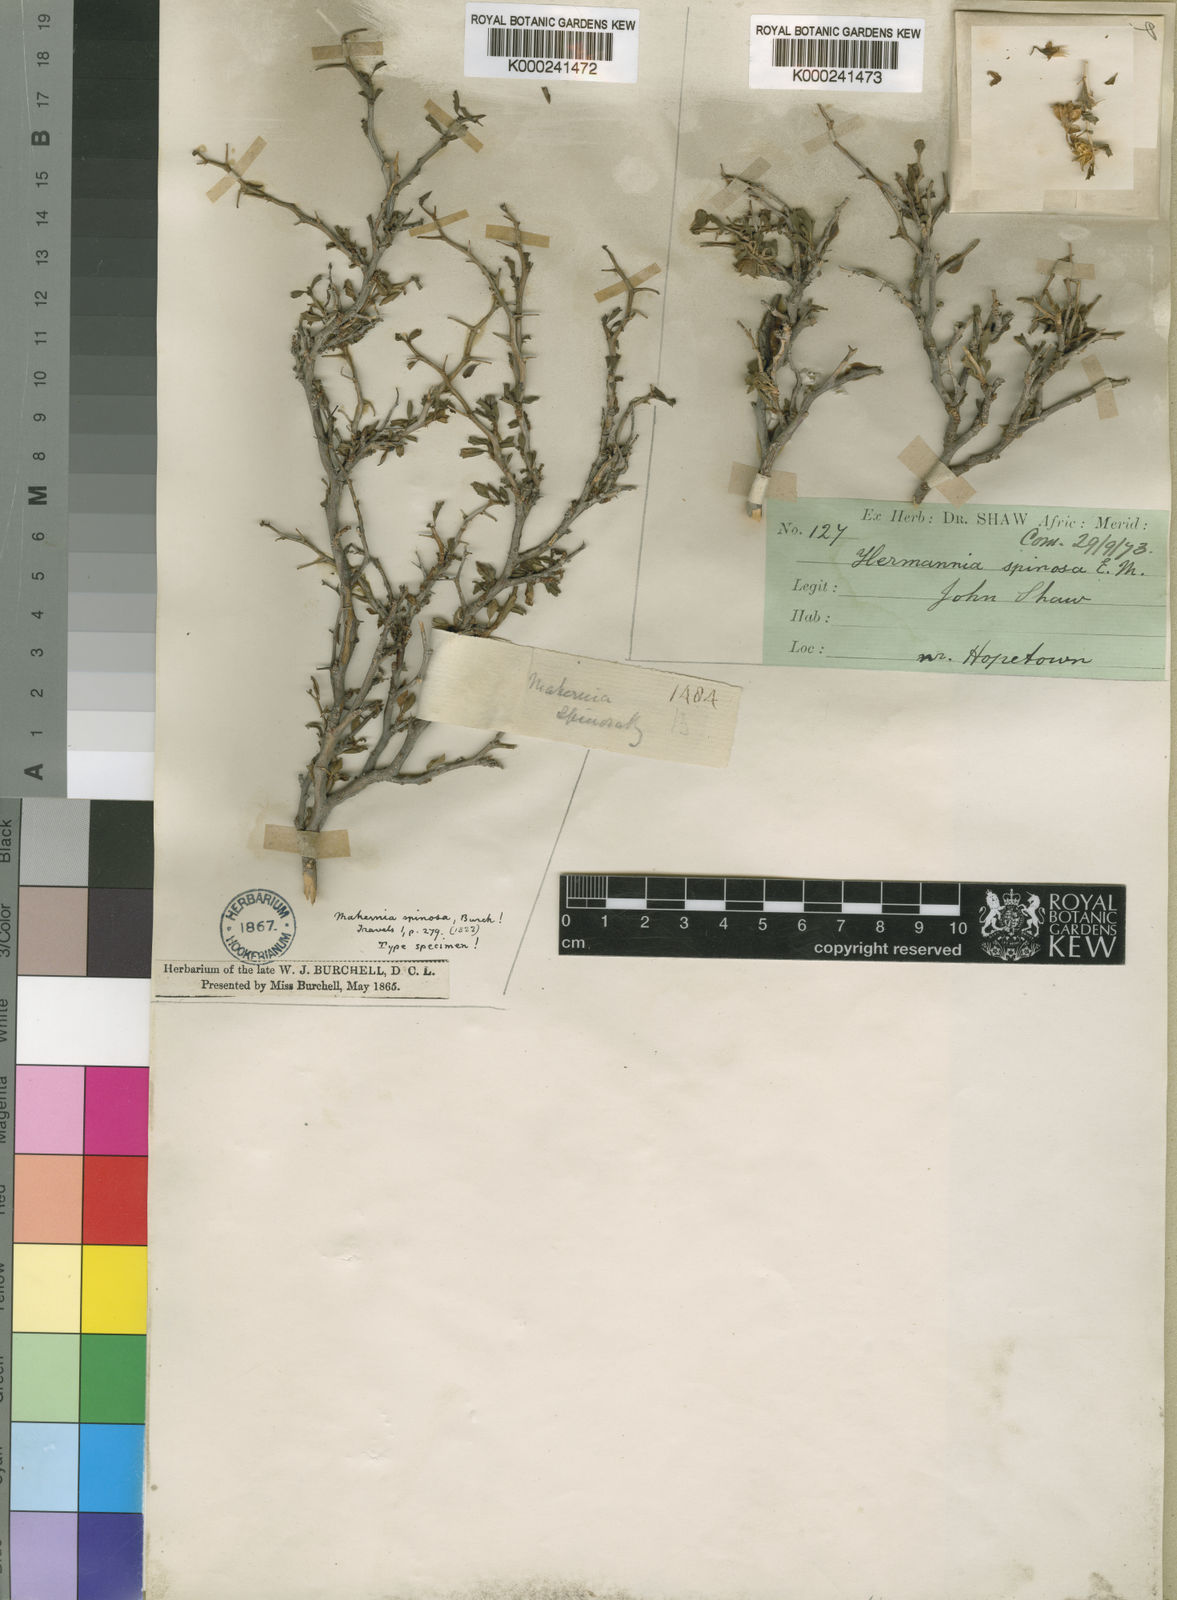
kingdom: Plantae
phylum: Tracheophyta
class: Magnoliopsida
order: Malvales
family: Malvaceae
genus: Hermannia
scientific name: Hermannia spinosa
